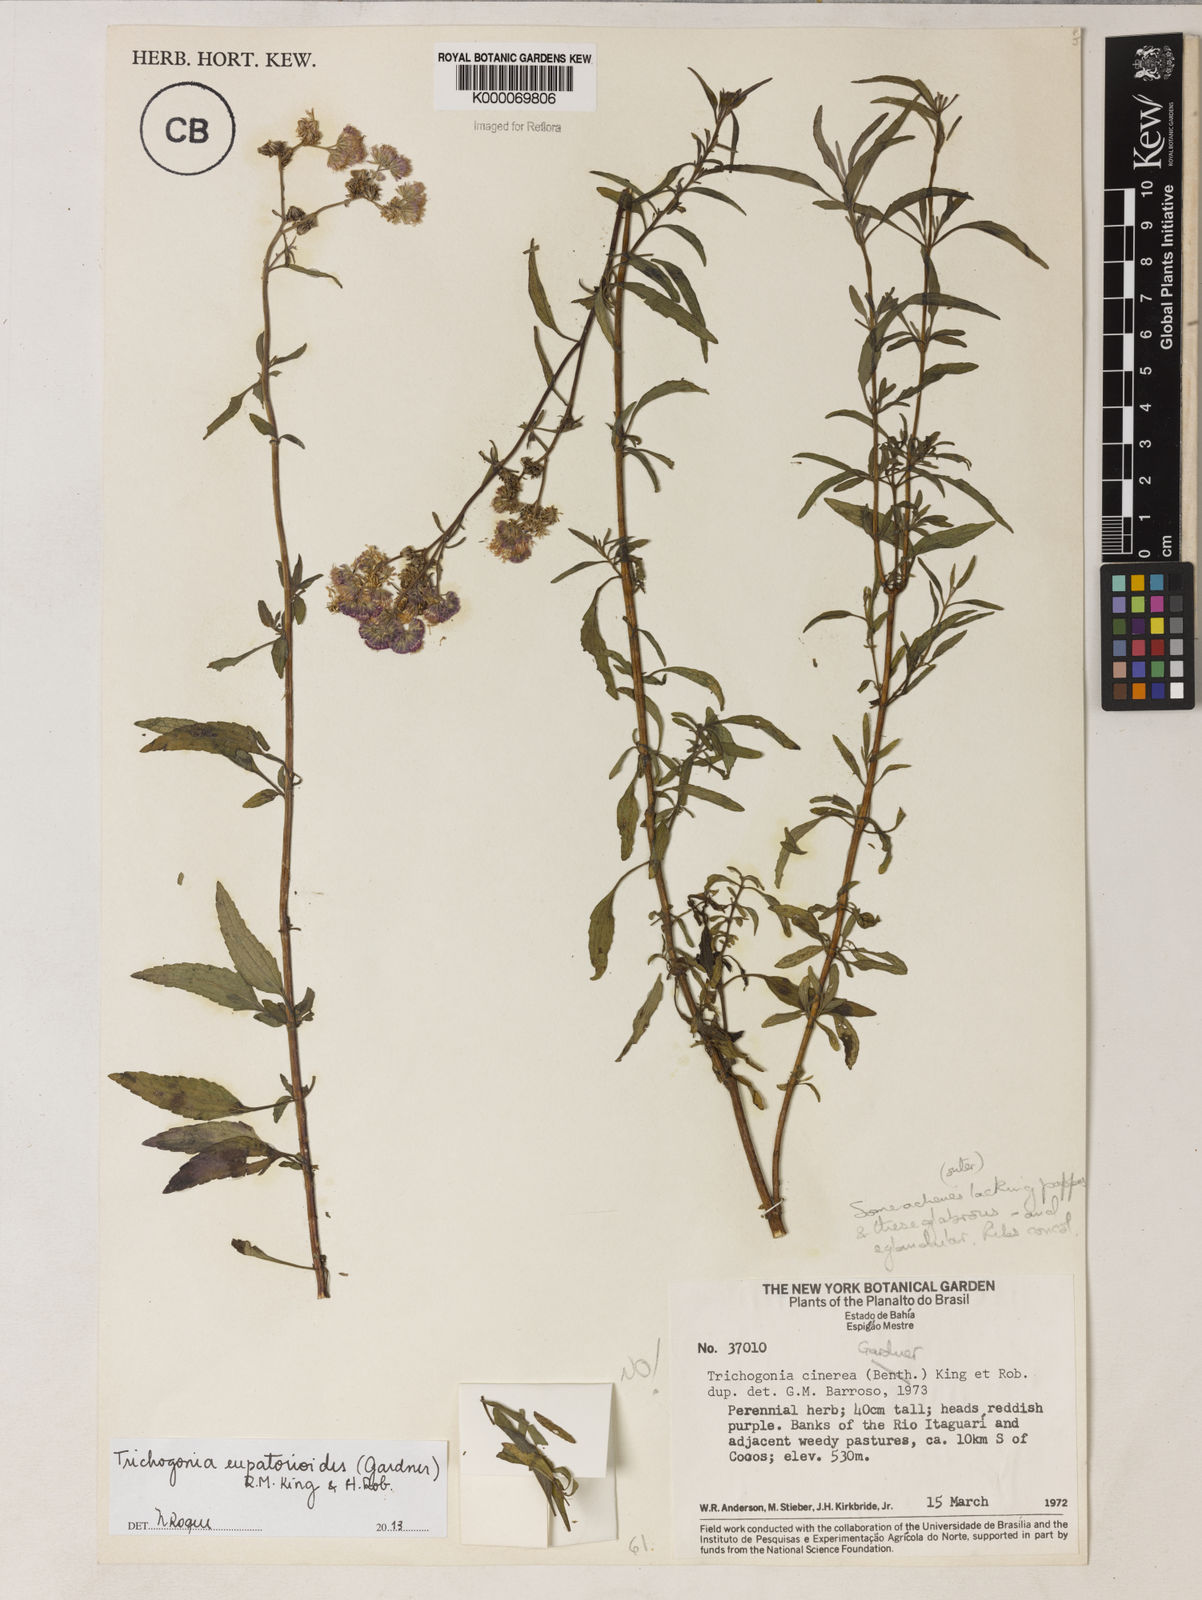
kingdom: Plantae
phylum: Tracheophyta
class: Magnoliopsida
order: Asterales
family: Asteraceae
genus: Trichogonia
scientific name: Trichogonia cinerea
